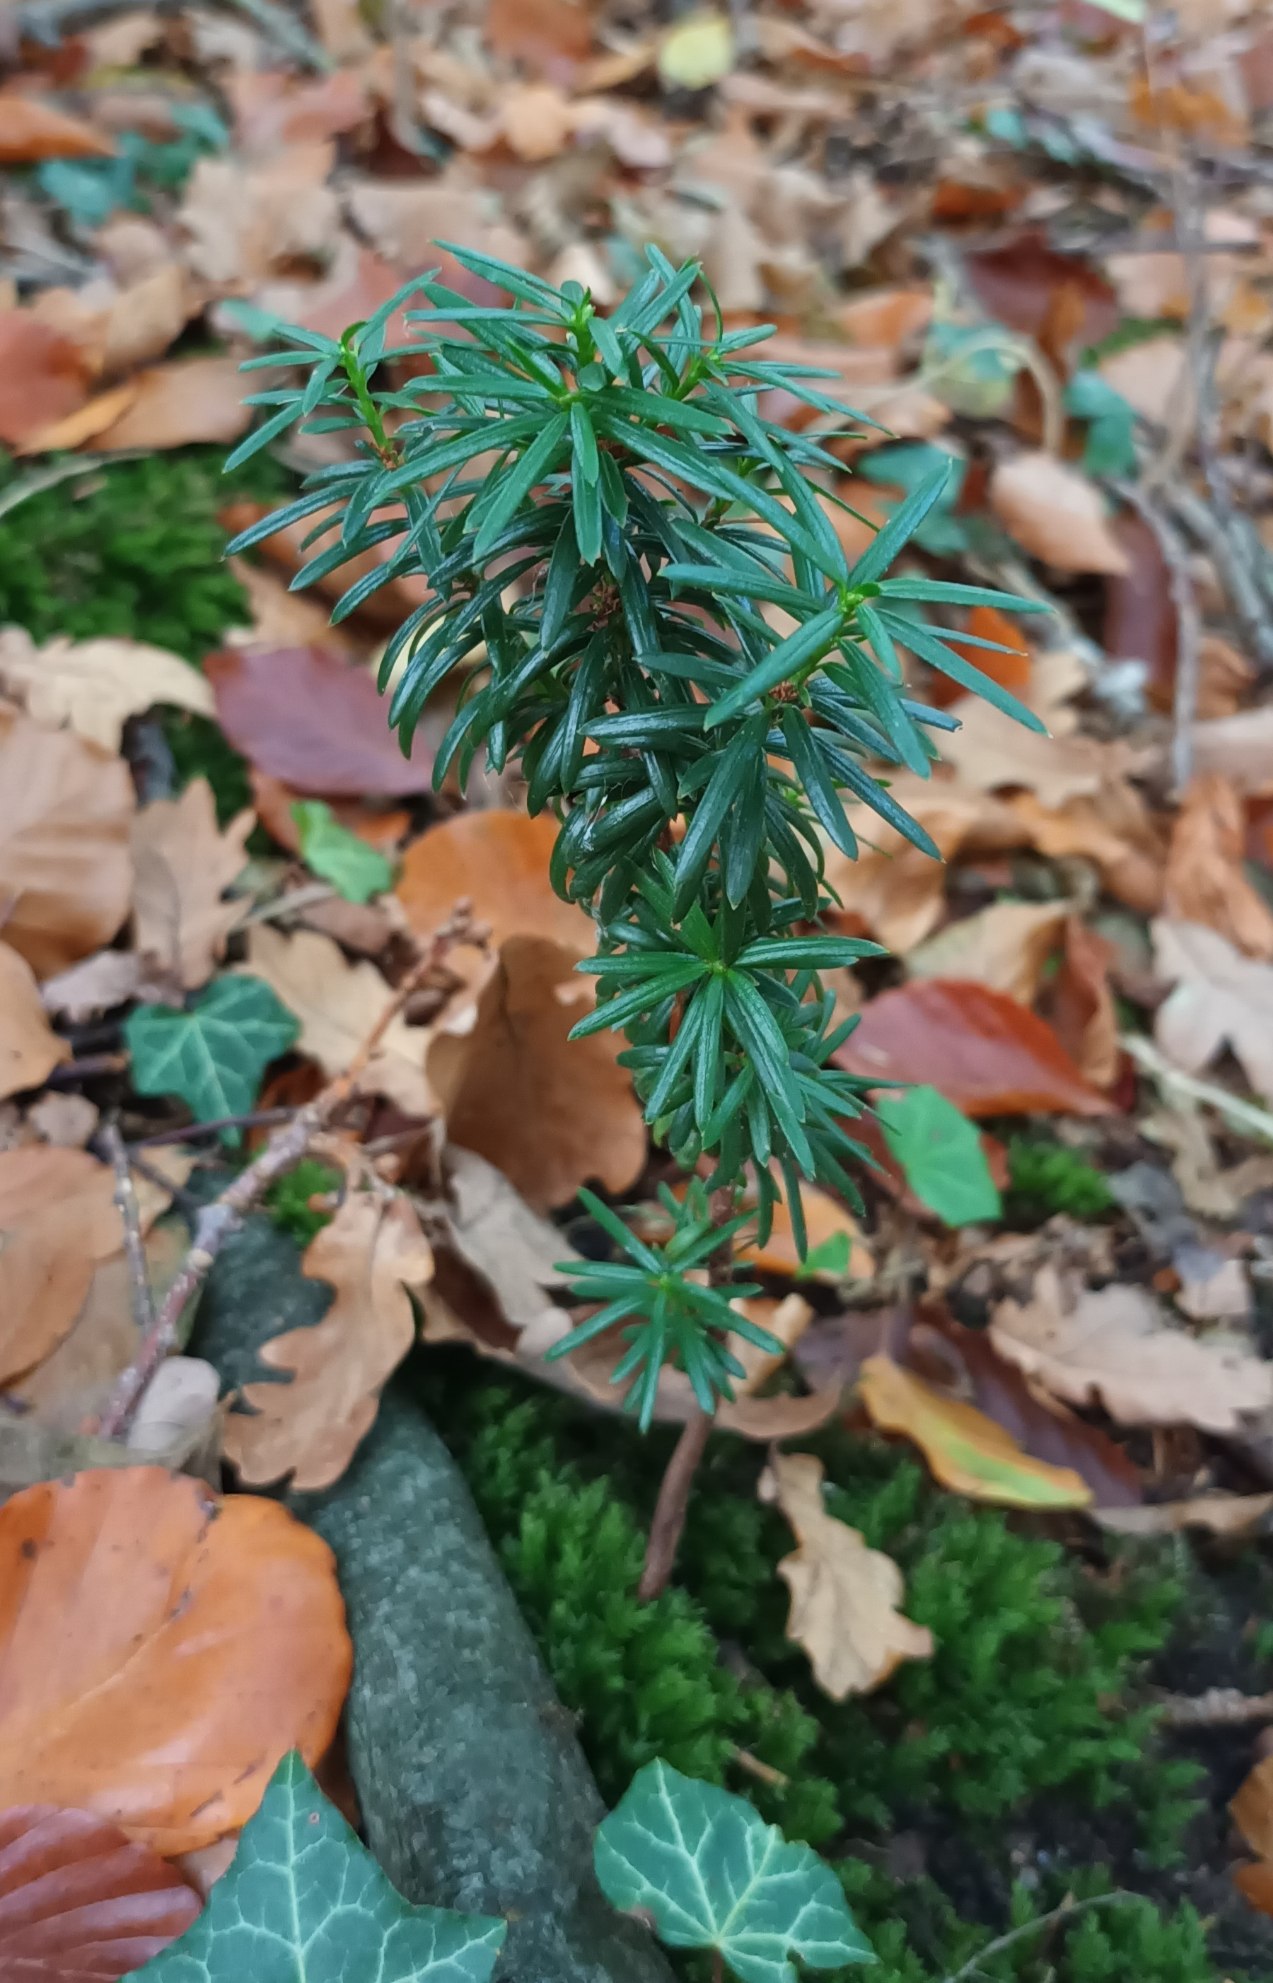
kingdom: Plantae
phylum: Tracheophyta
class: Pinopsida
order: Pinales
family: Taxaceae
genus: Taxus
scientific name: Taxus baccata
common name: Almindelig taks
